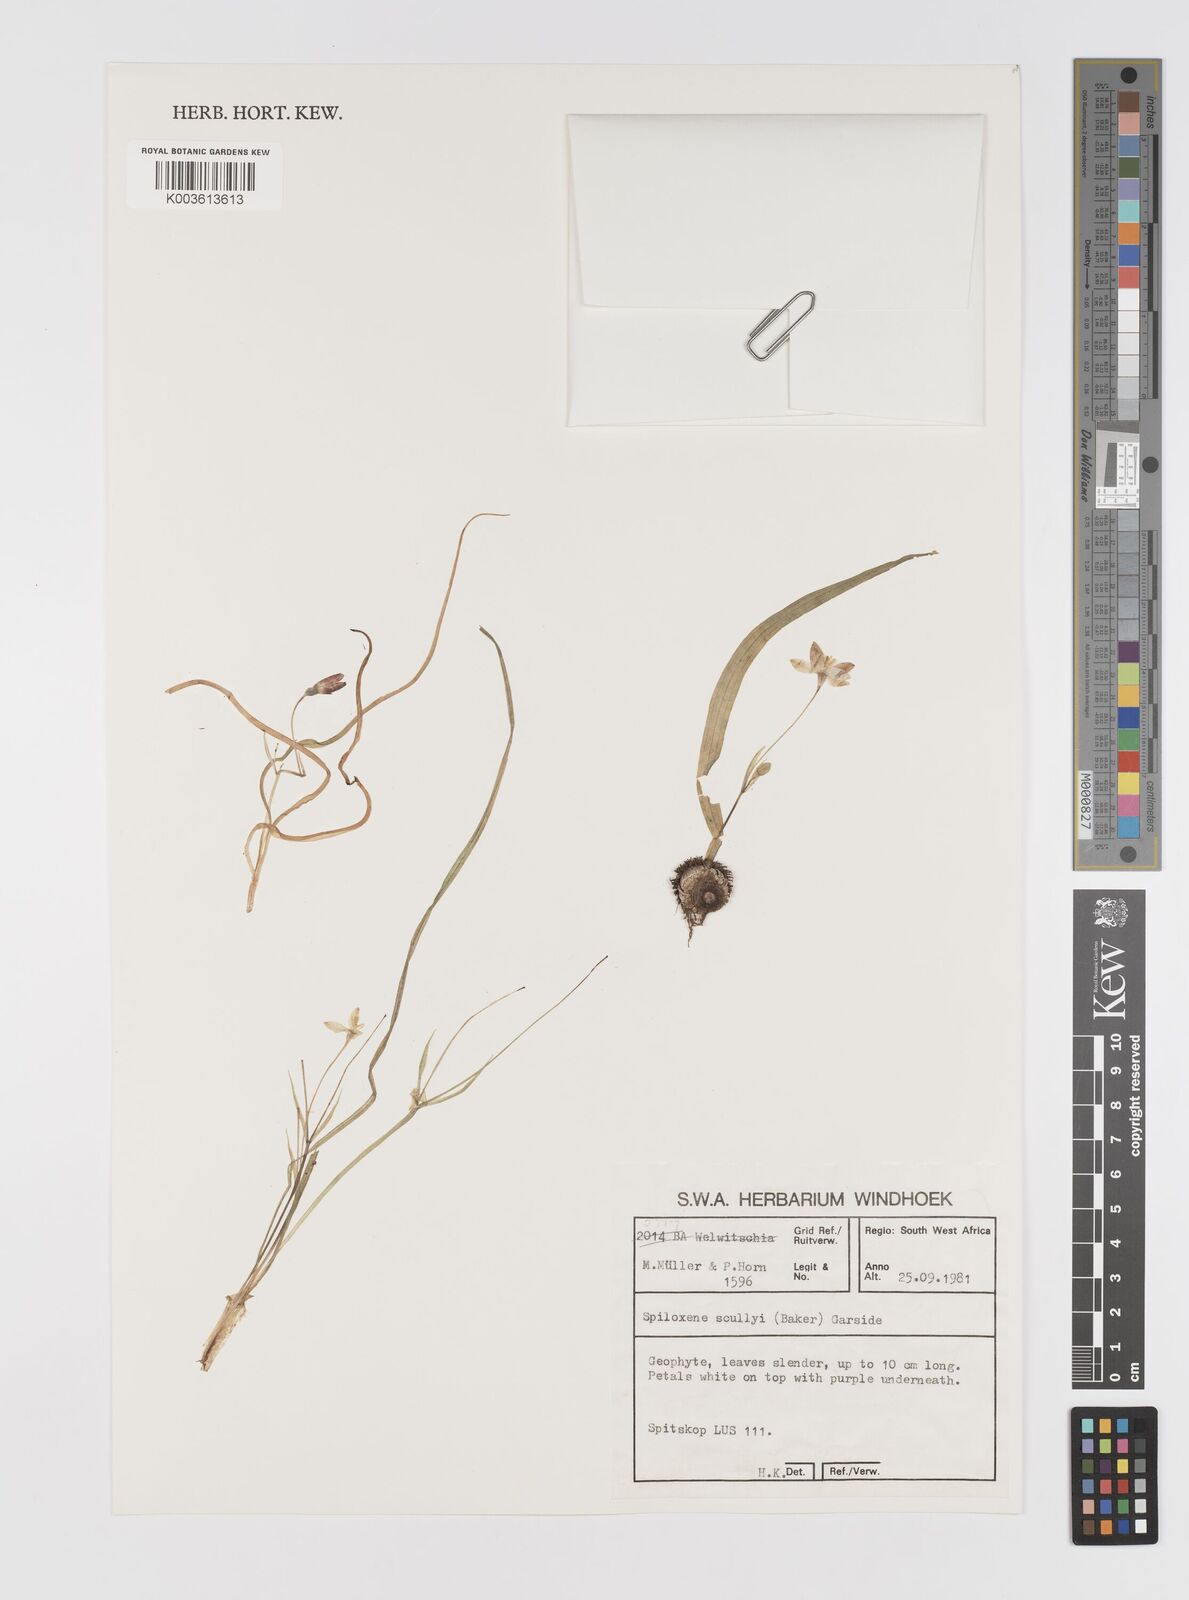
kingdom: Plantae
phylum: Tracheophyta
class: Liliopsida
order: Asparagales
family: Hypoxidaceae
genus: Pauridia
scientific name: Pauridia scullyi
